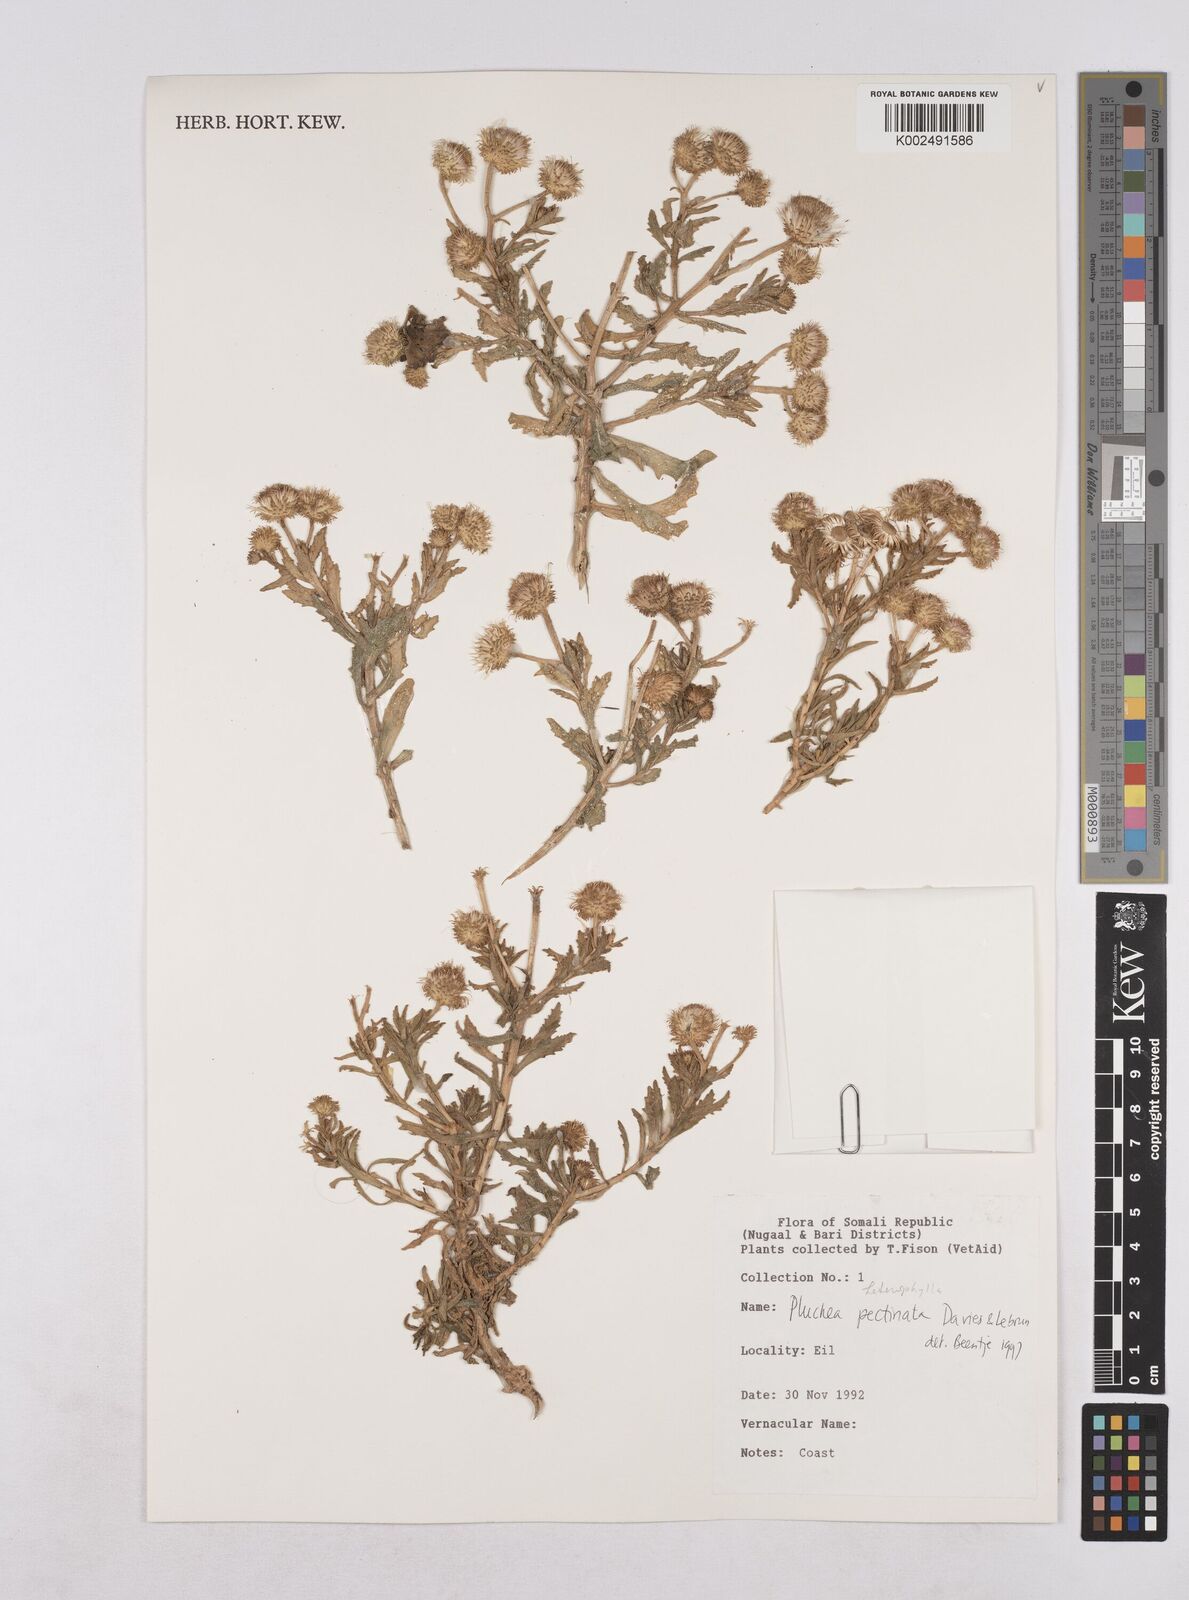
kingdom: Plantae
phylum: Tracheophyta
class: Magnoliopsida
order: Asterales
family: Asteraceae
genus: Pluchea
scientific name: Pluchea succulenta
